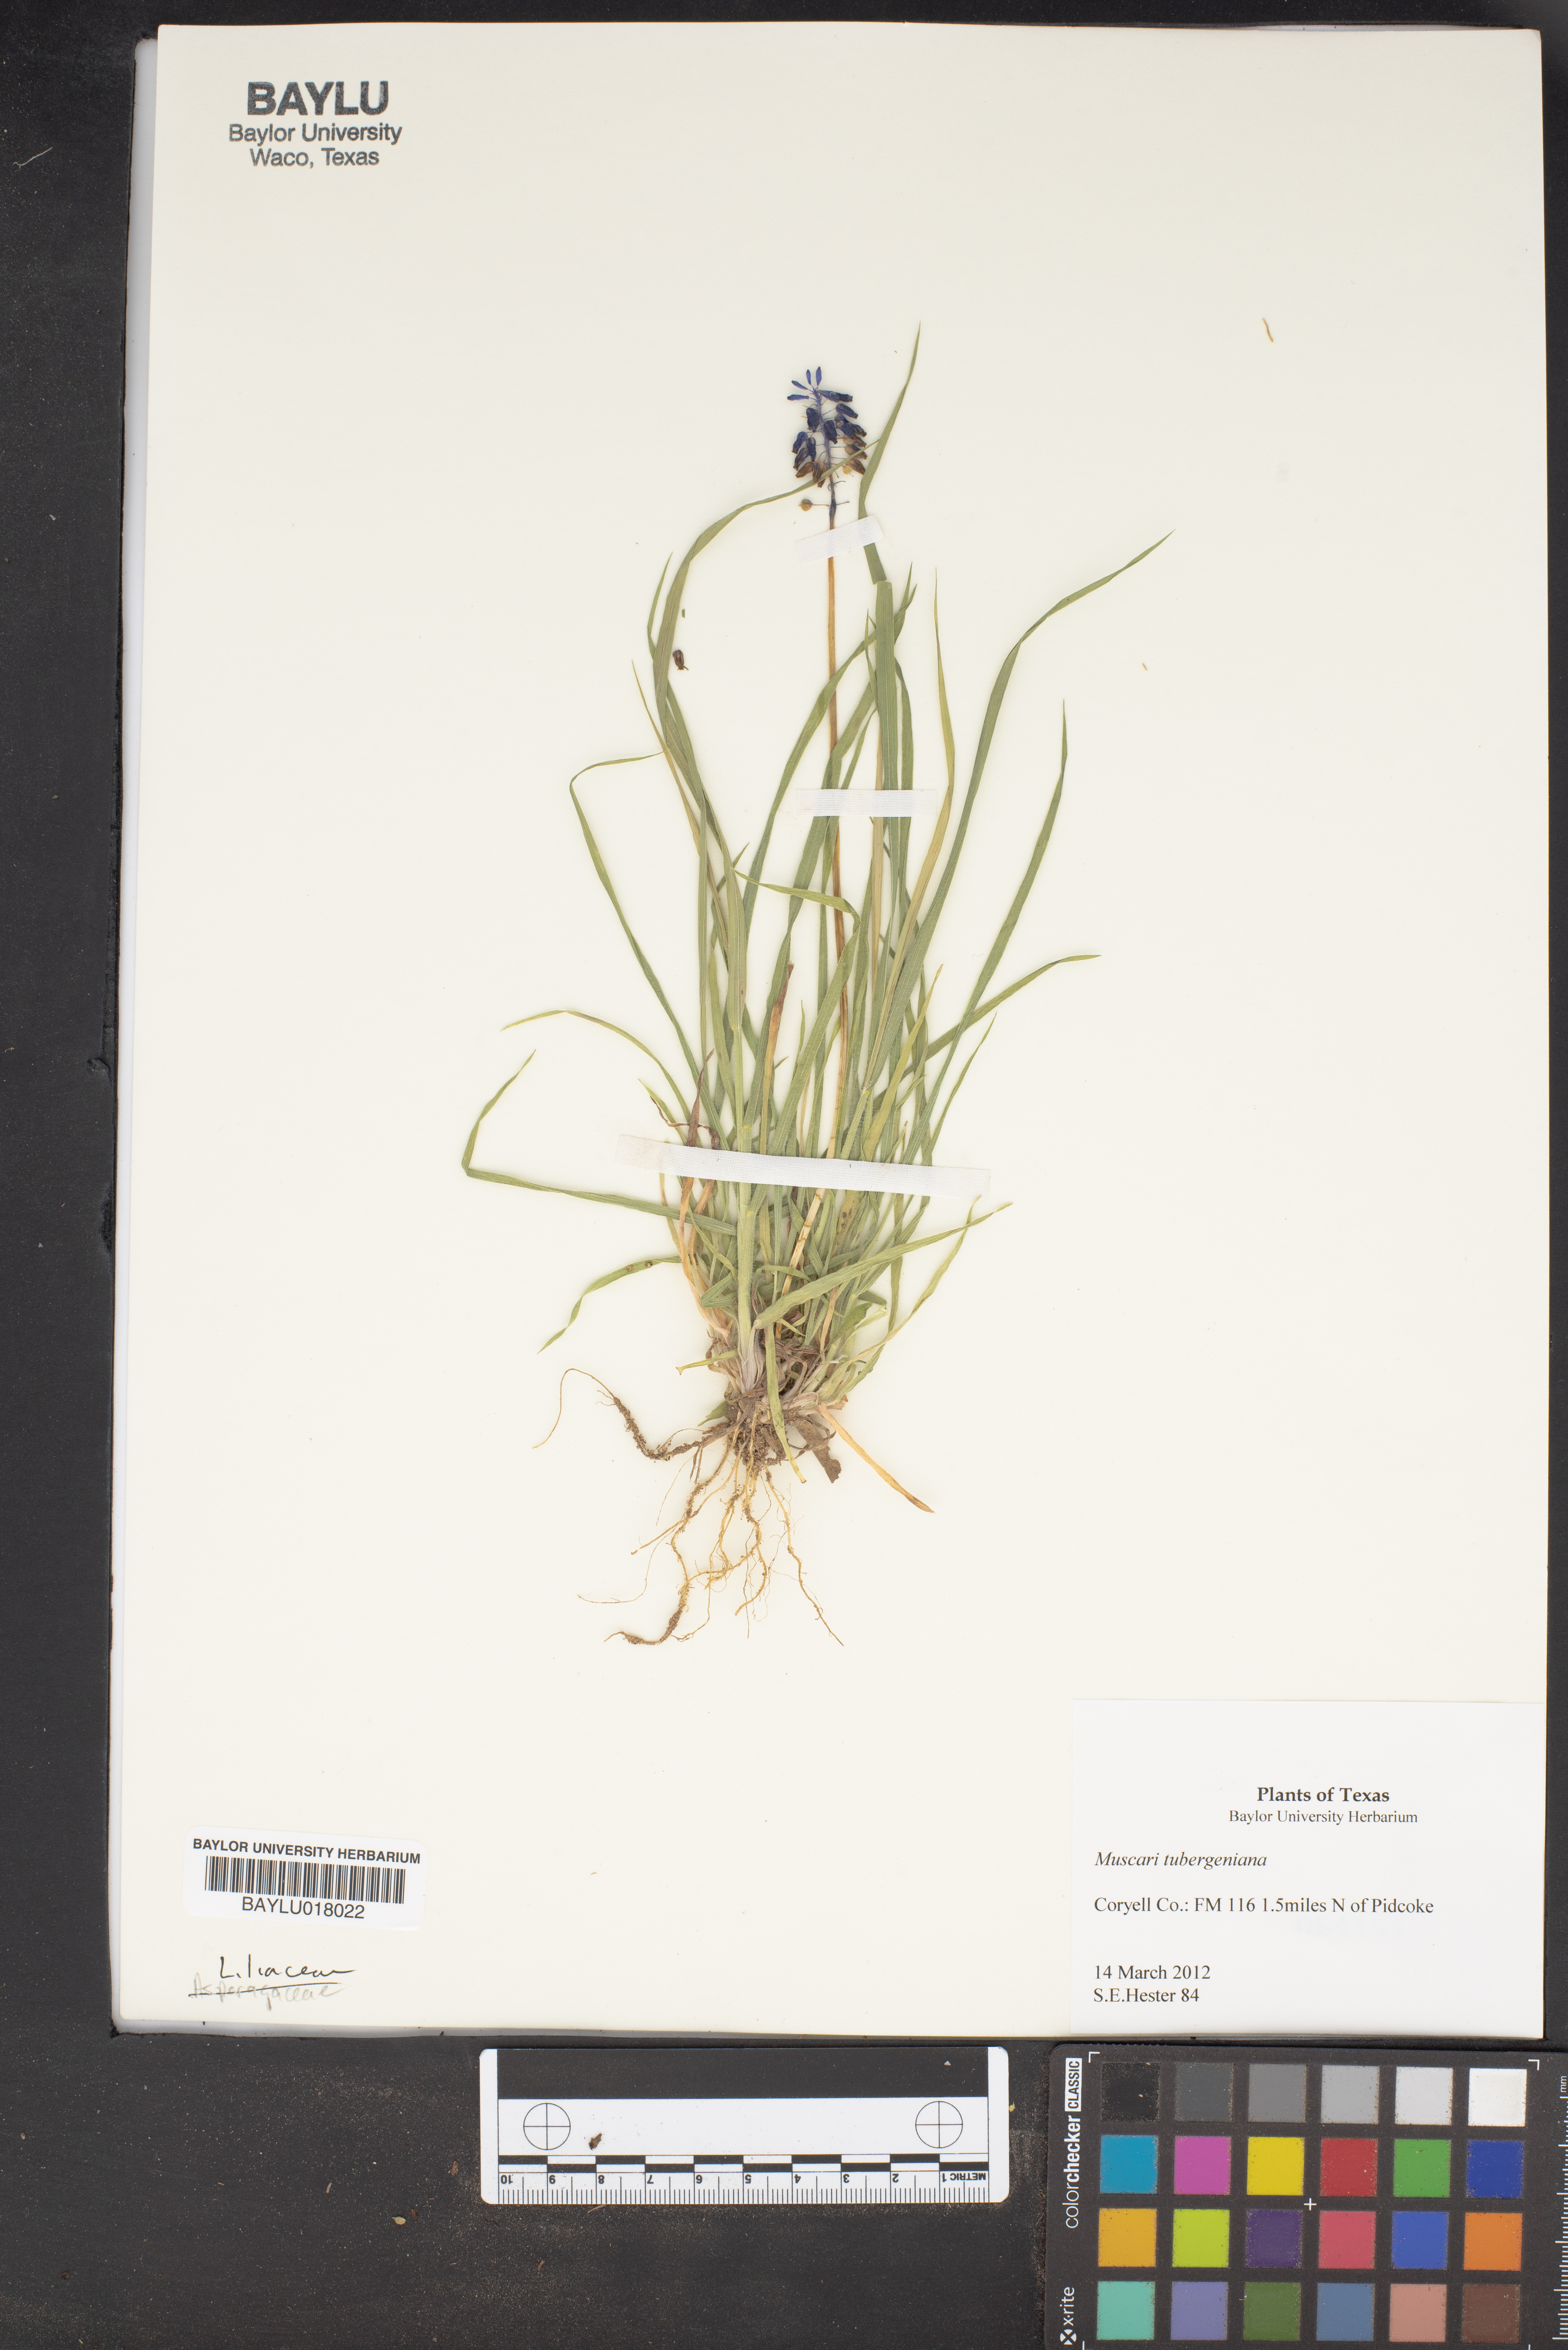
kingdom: Plantae
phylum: Tracheophyta
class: Liliopsida
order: Asparagales
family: Asparagaceae
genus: Muscari
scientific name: Muscari aucheri
